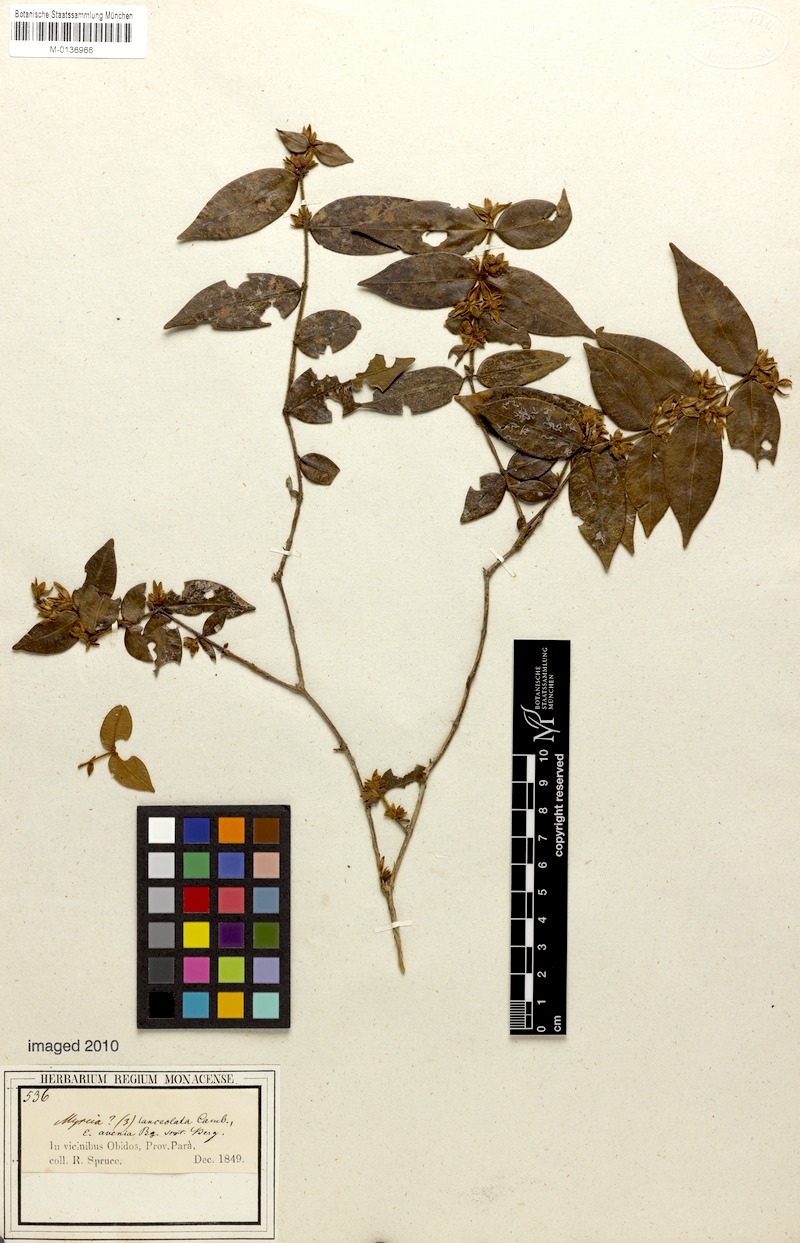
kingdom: Plantae
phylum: Tracheophyta
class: Magnoliopsida
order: Myrtales
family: Myrtaceae
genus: Myrcia
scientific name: Myrcia bracteata
